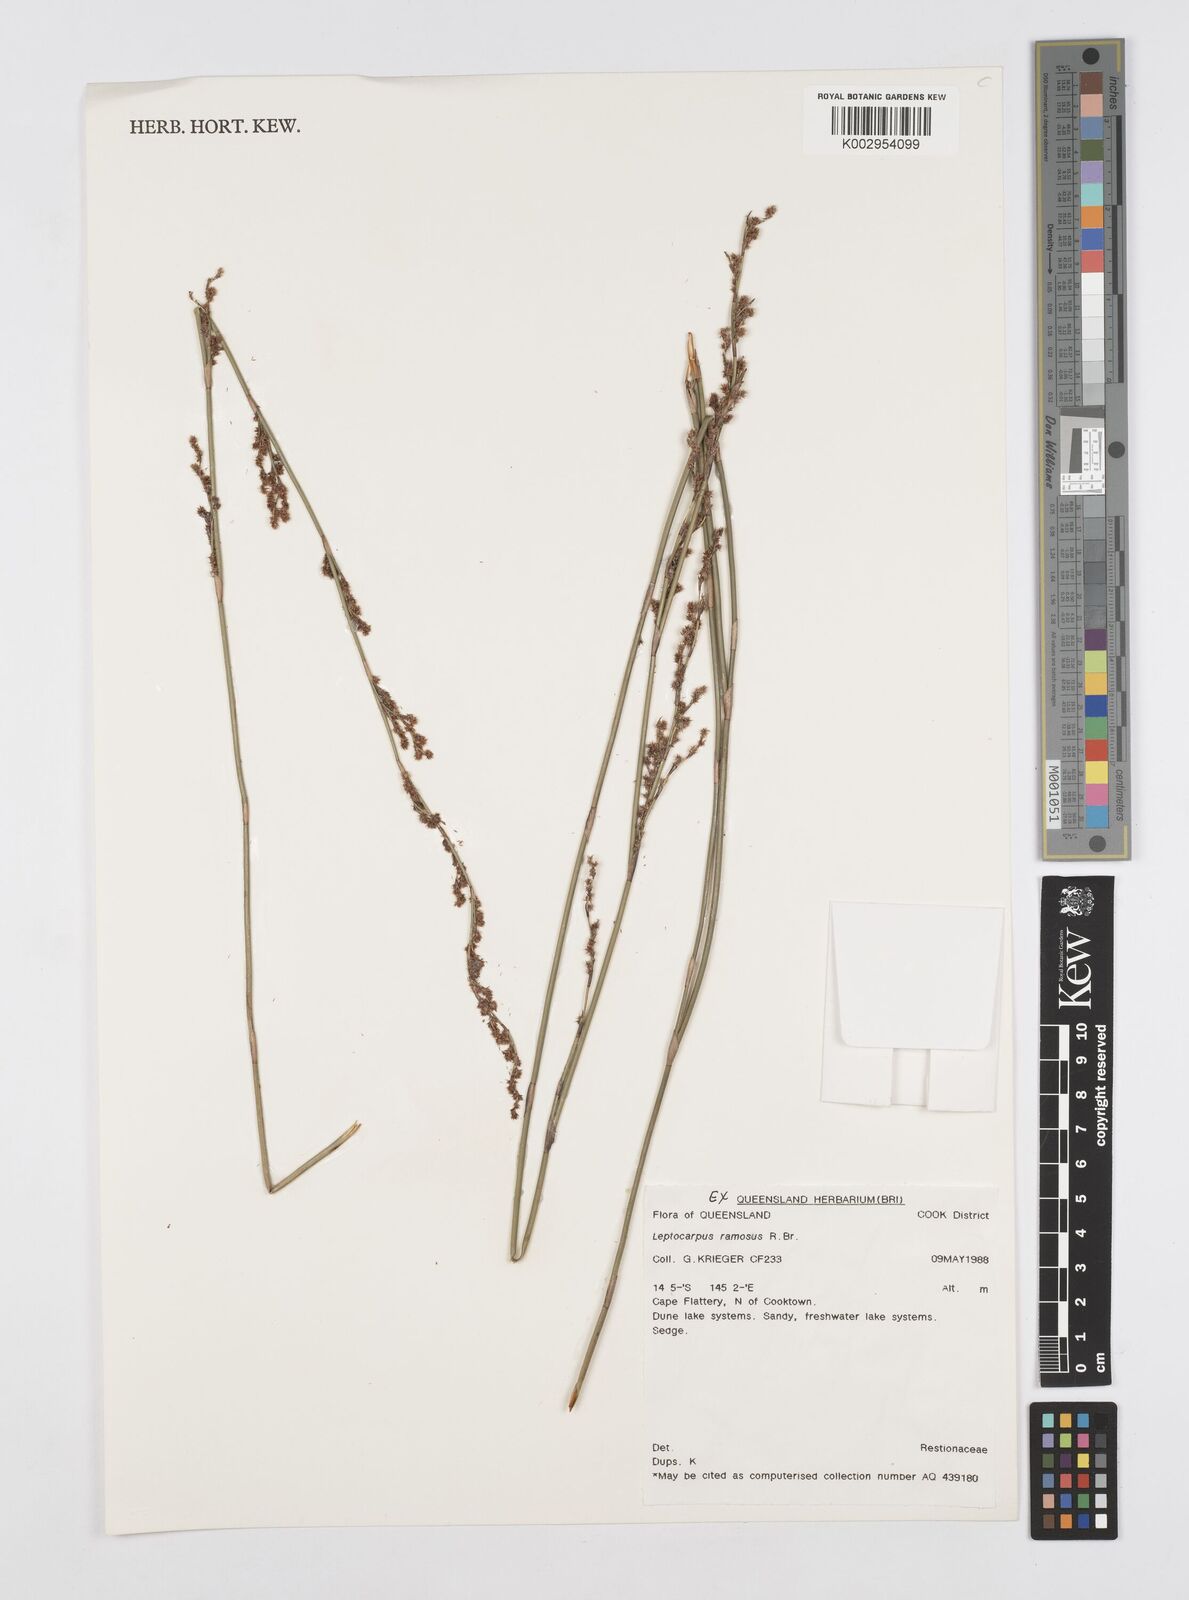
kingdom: Plantae
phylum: Tracheophyta
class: Liliopsida
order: Poales
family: Restionaceae
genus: Dapsilanthus
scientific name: Dapsilanthus ramosus
